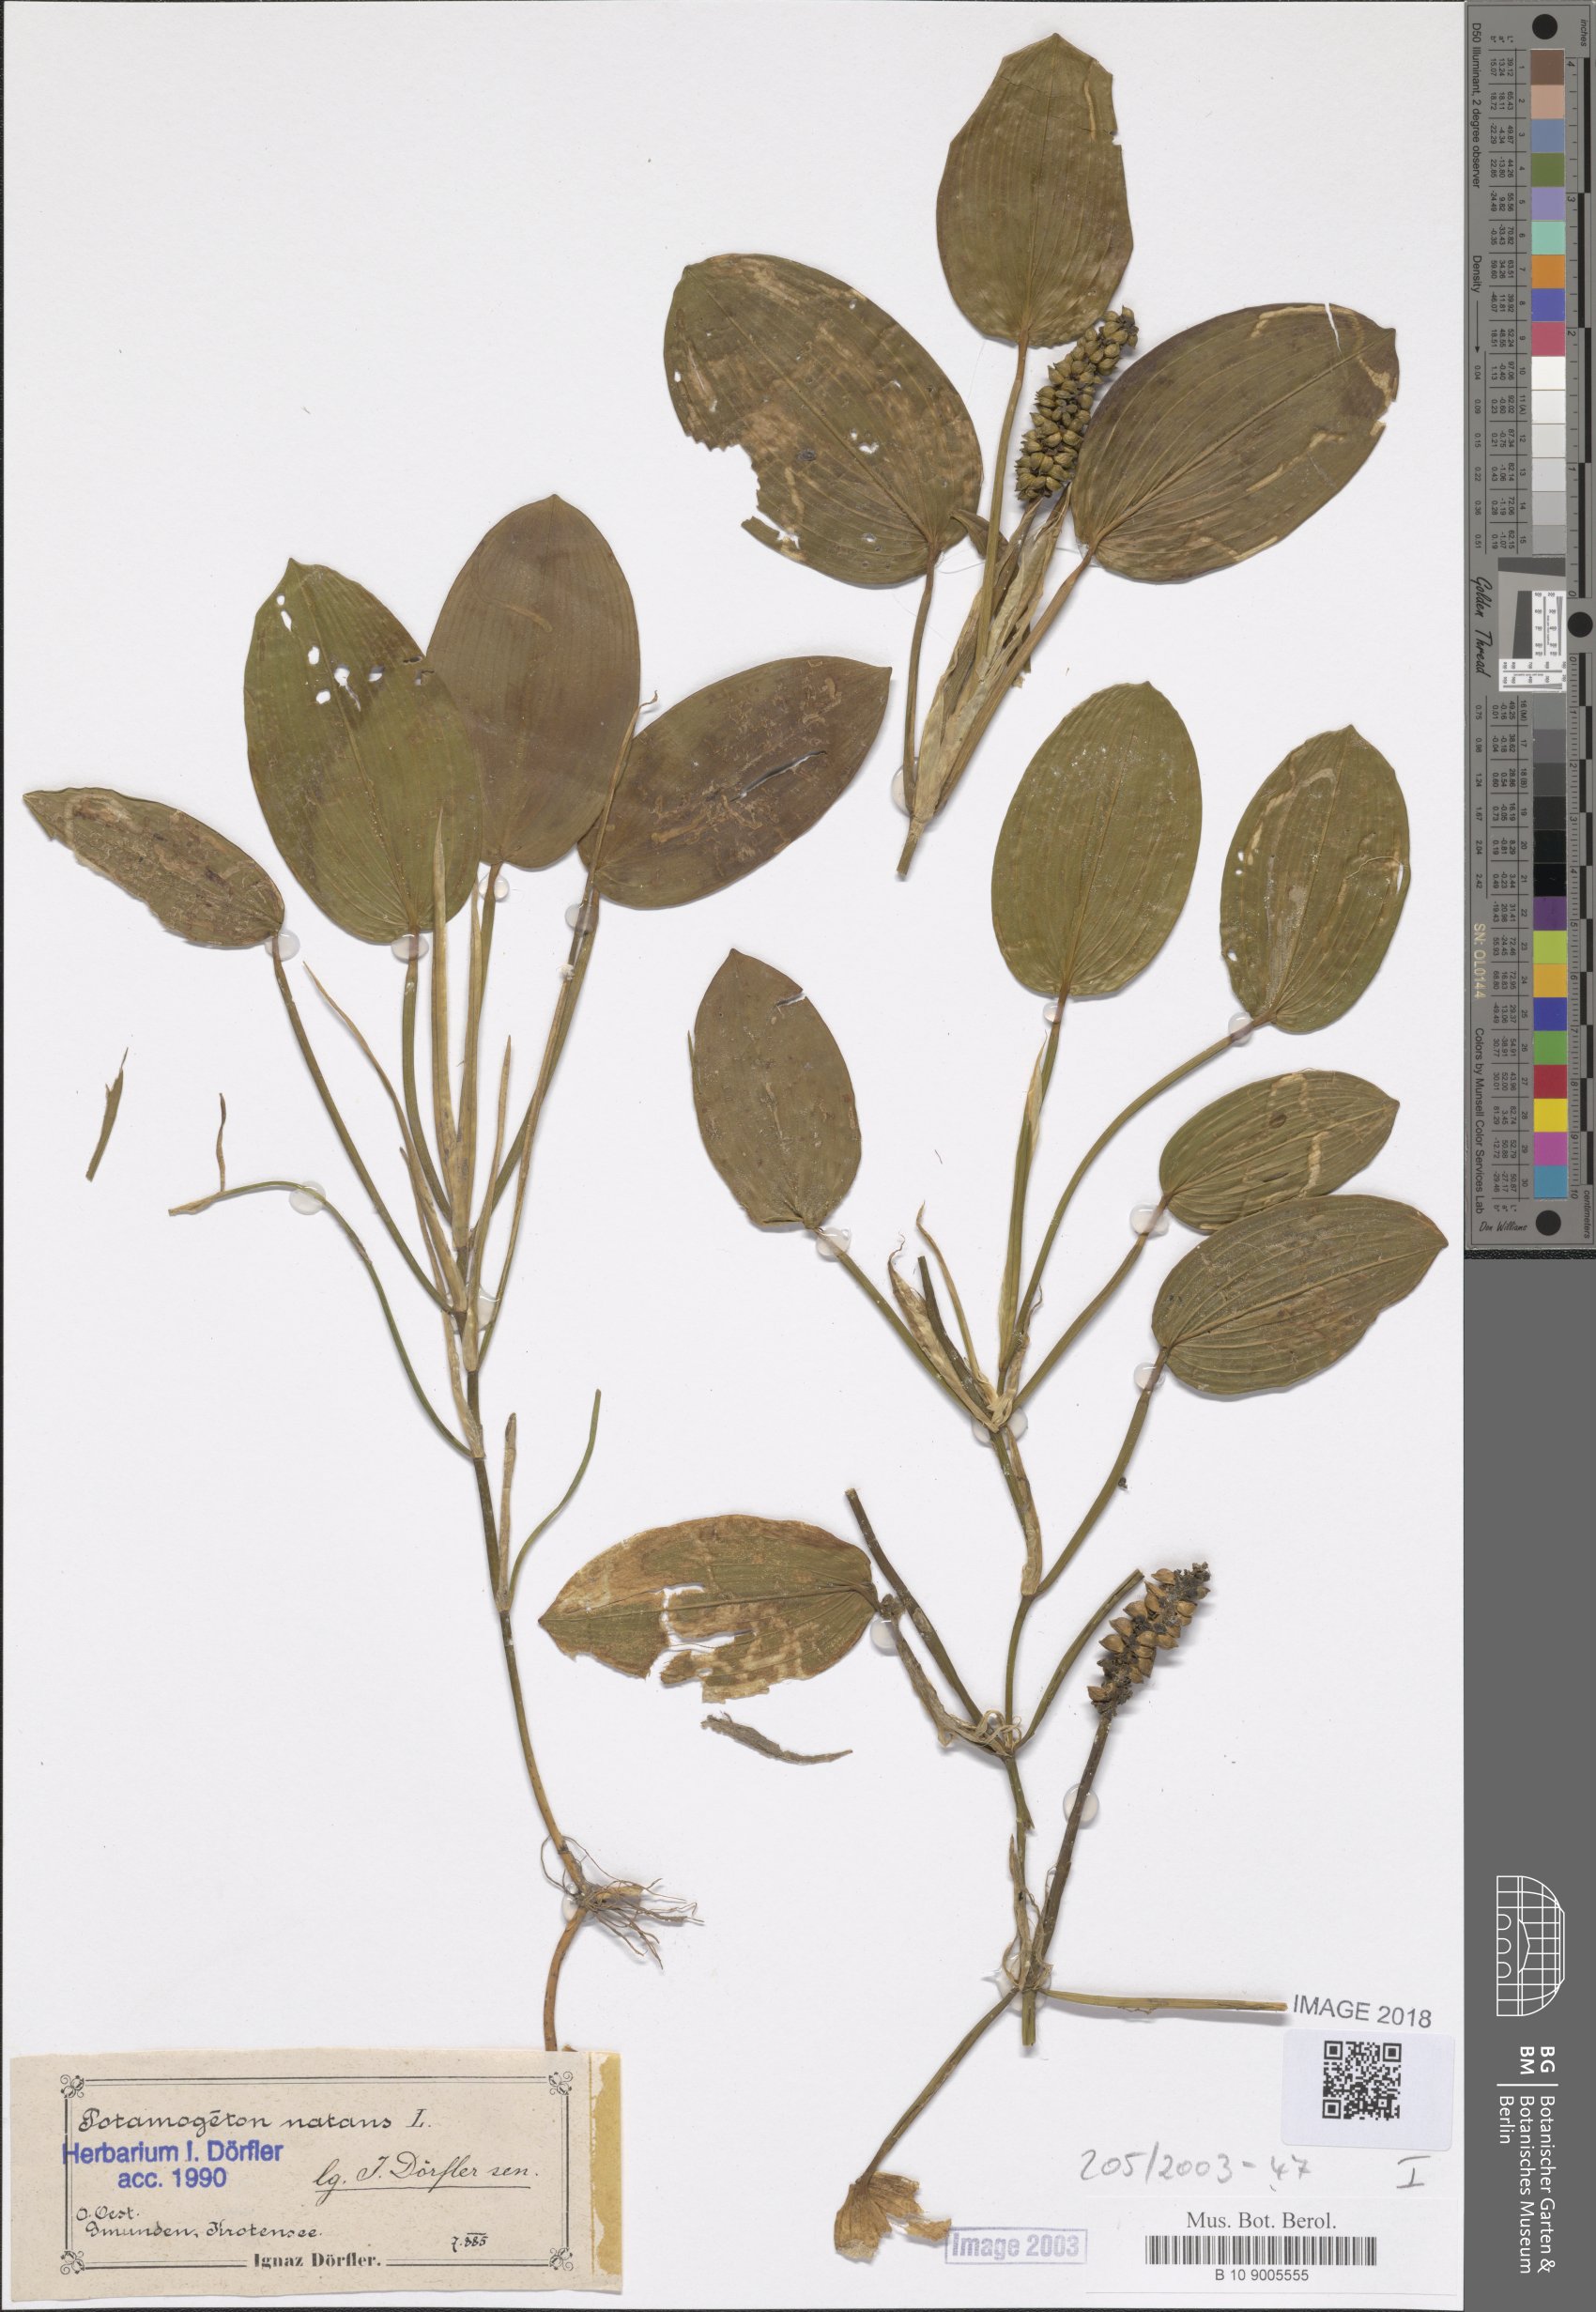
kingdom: Plantae
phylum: Tracheophyta
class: Liliopsida
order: Alismatales
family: Potamogetonaceae
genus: Potamogeton
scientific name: Potamogeton natans
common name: Broad-leaved pondweed
